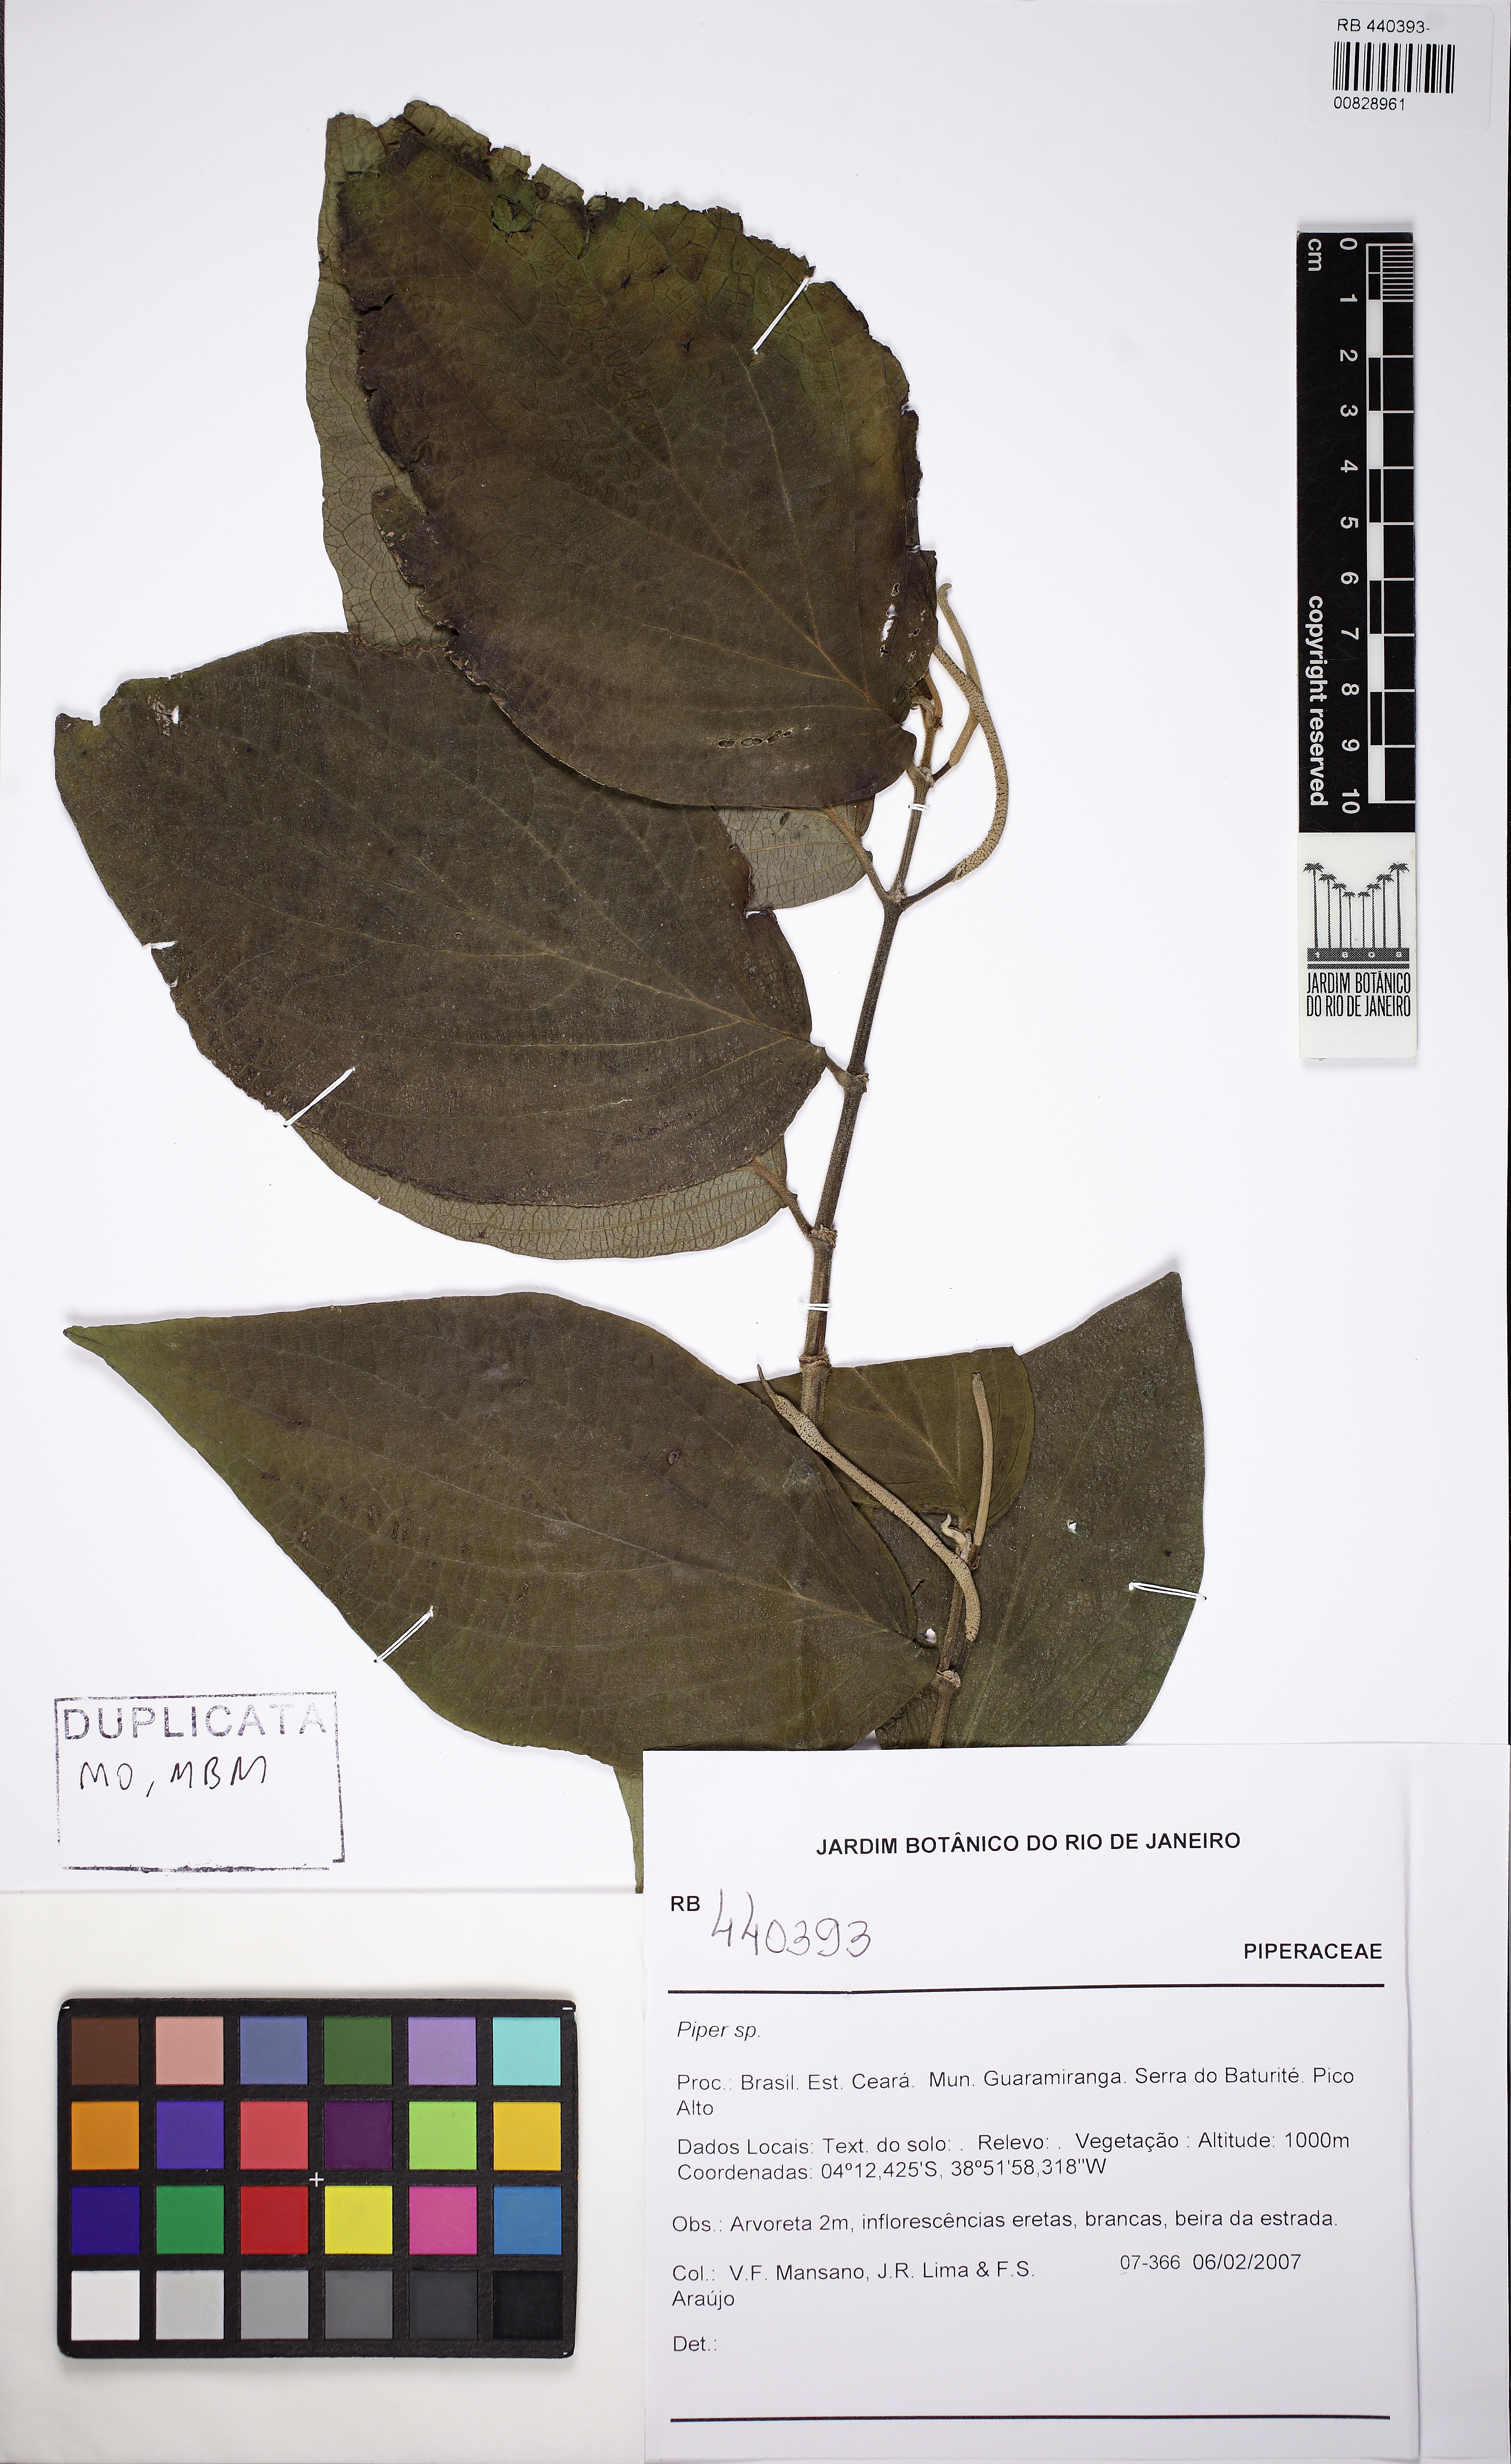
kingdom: Plantae
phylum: Tracheophyta
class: Magnoliopsida
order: Piperales
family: Piperaceae
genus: Piper
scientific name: Piper
